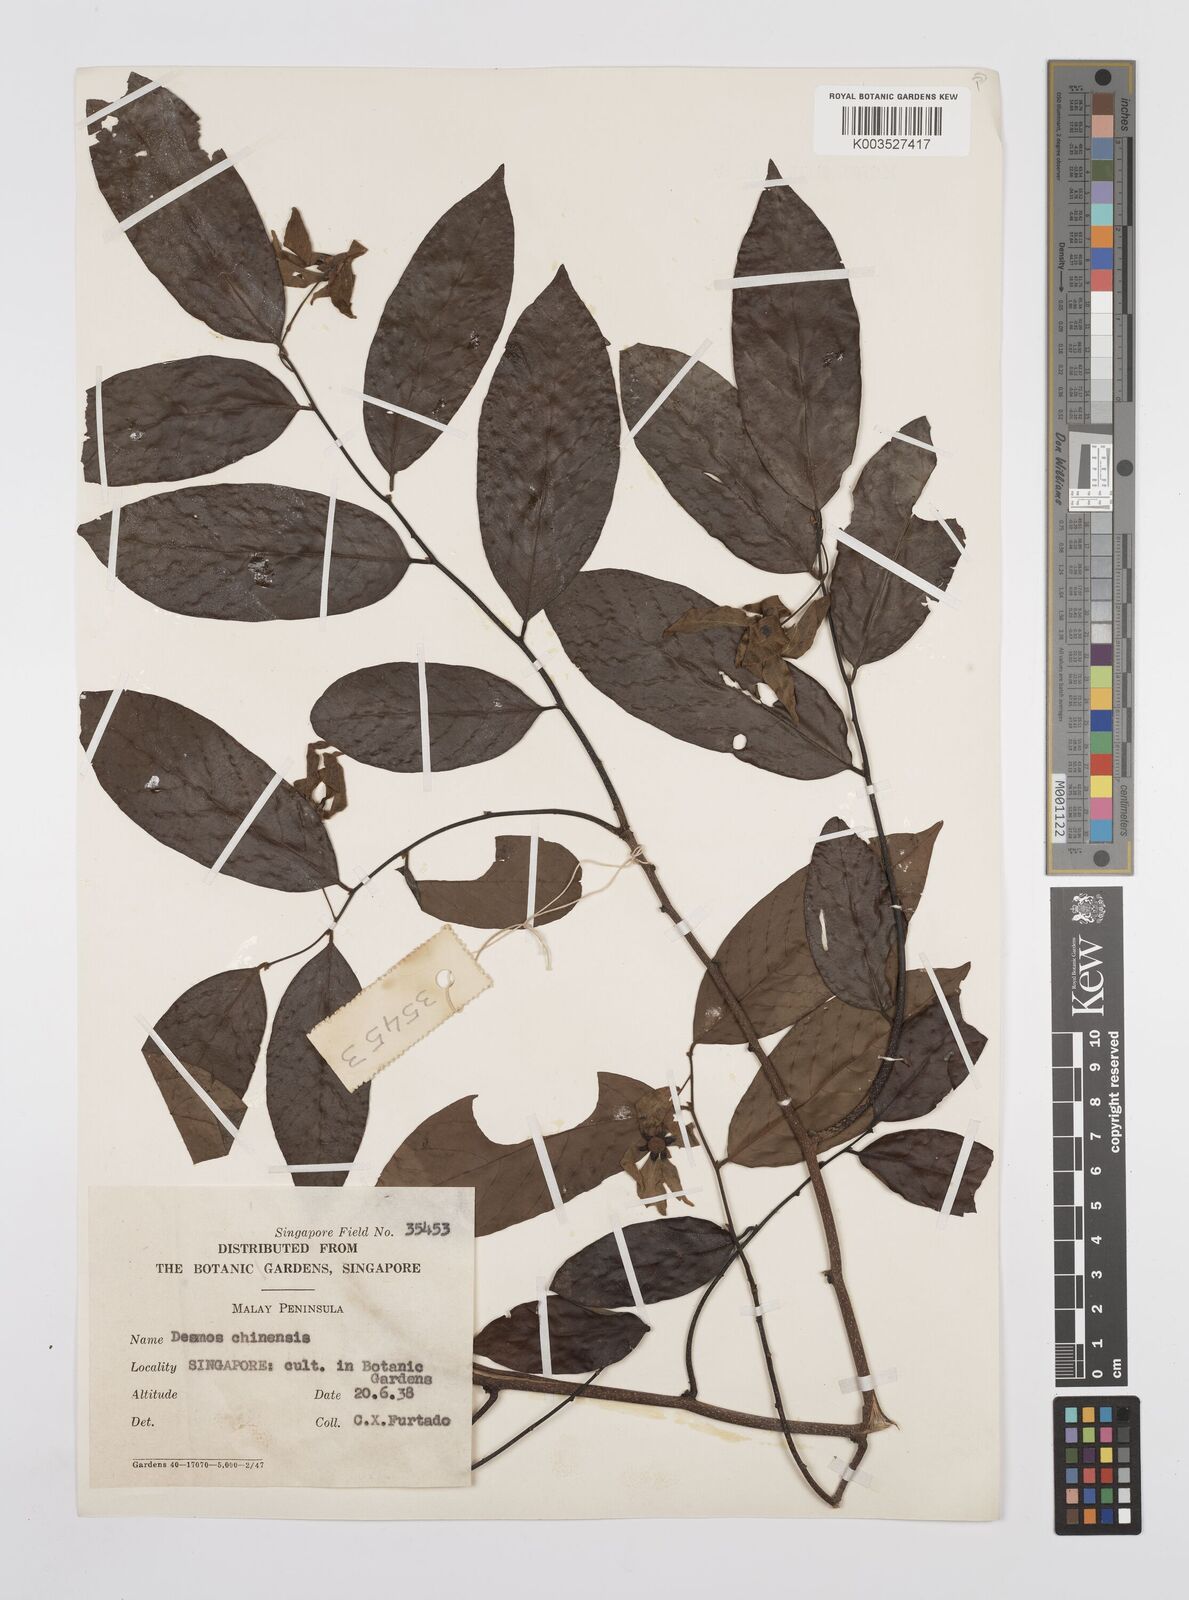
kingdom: Plantae
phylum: Tracheophyta
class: Magnoliopsida
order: Magnoliales
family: Annonaceae
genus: Desmos
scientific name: Desmos chinensis
